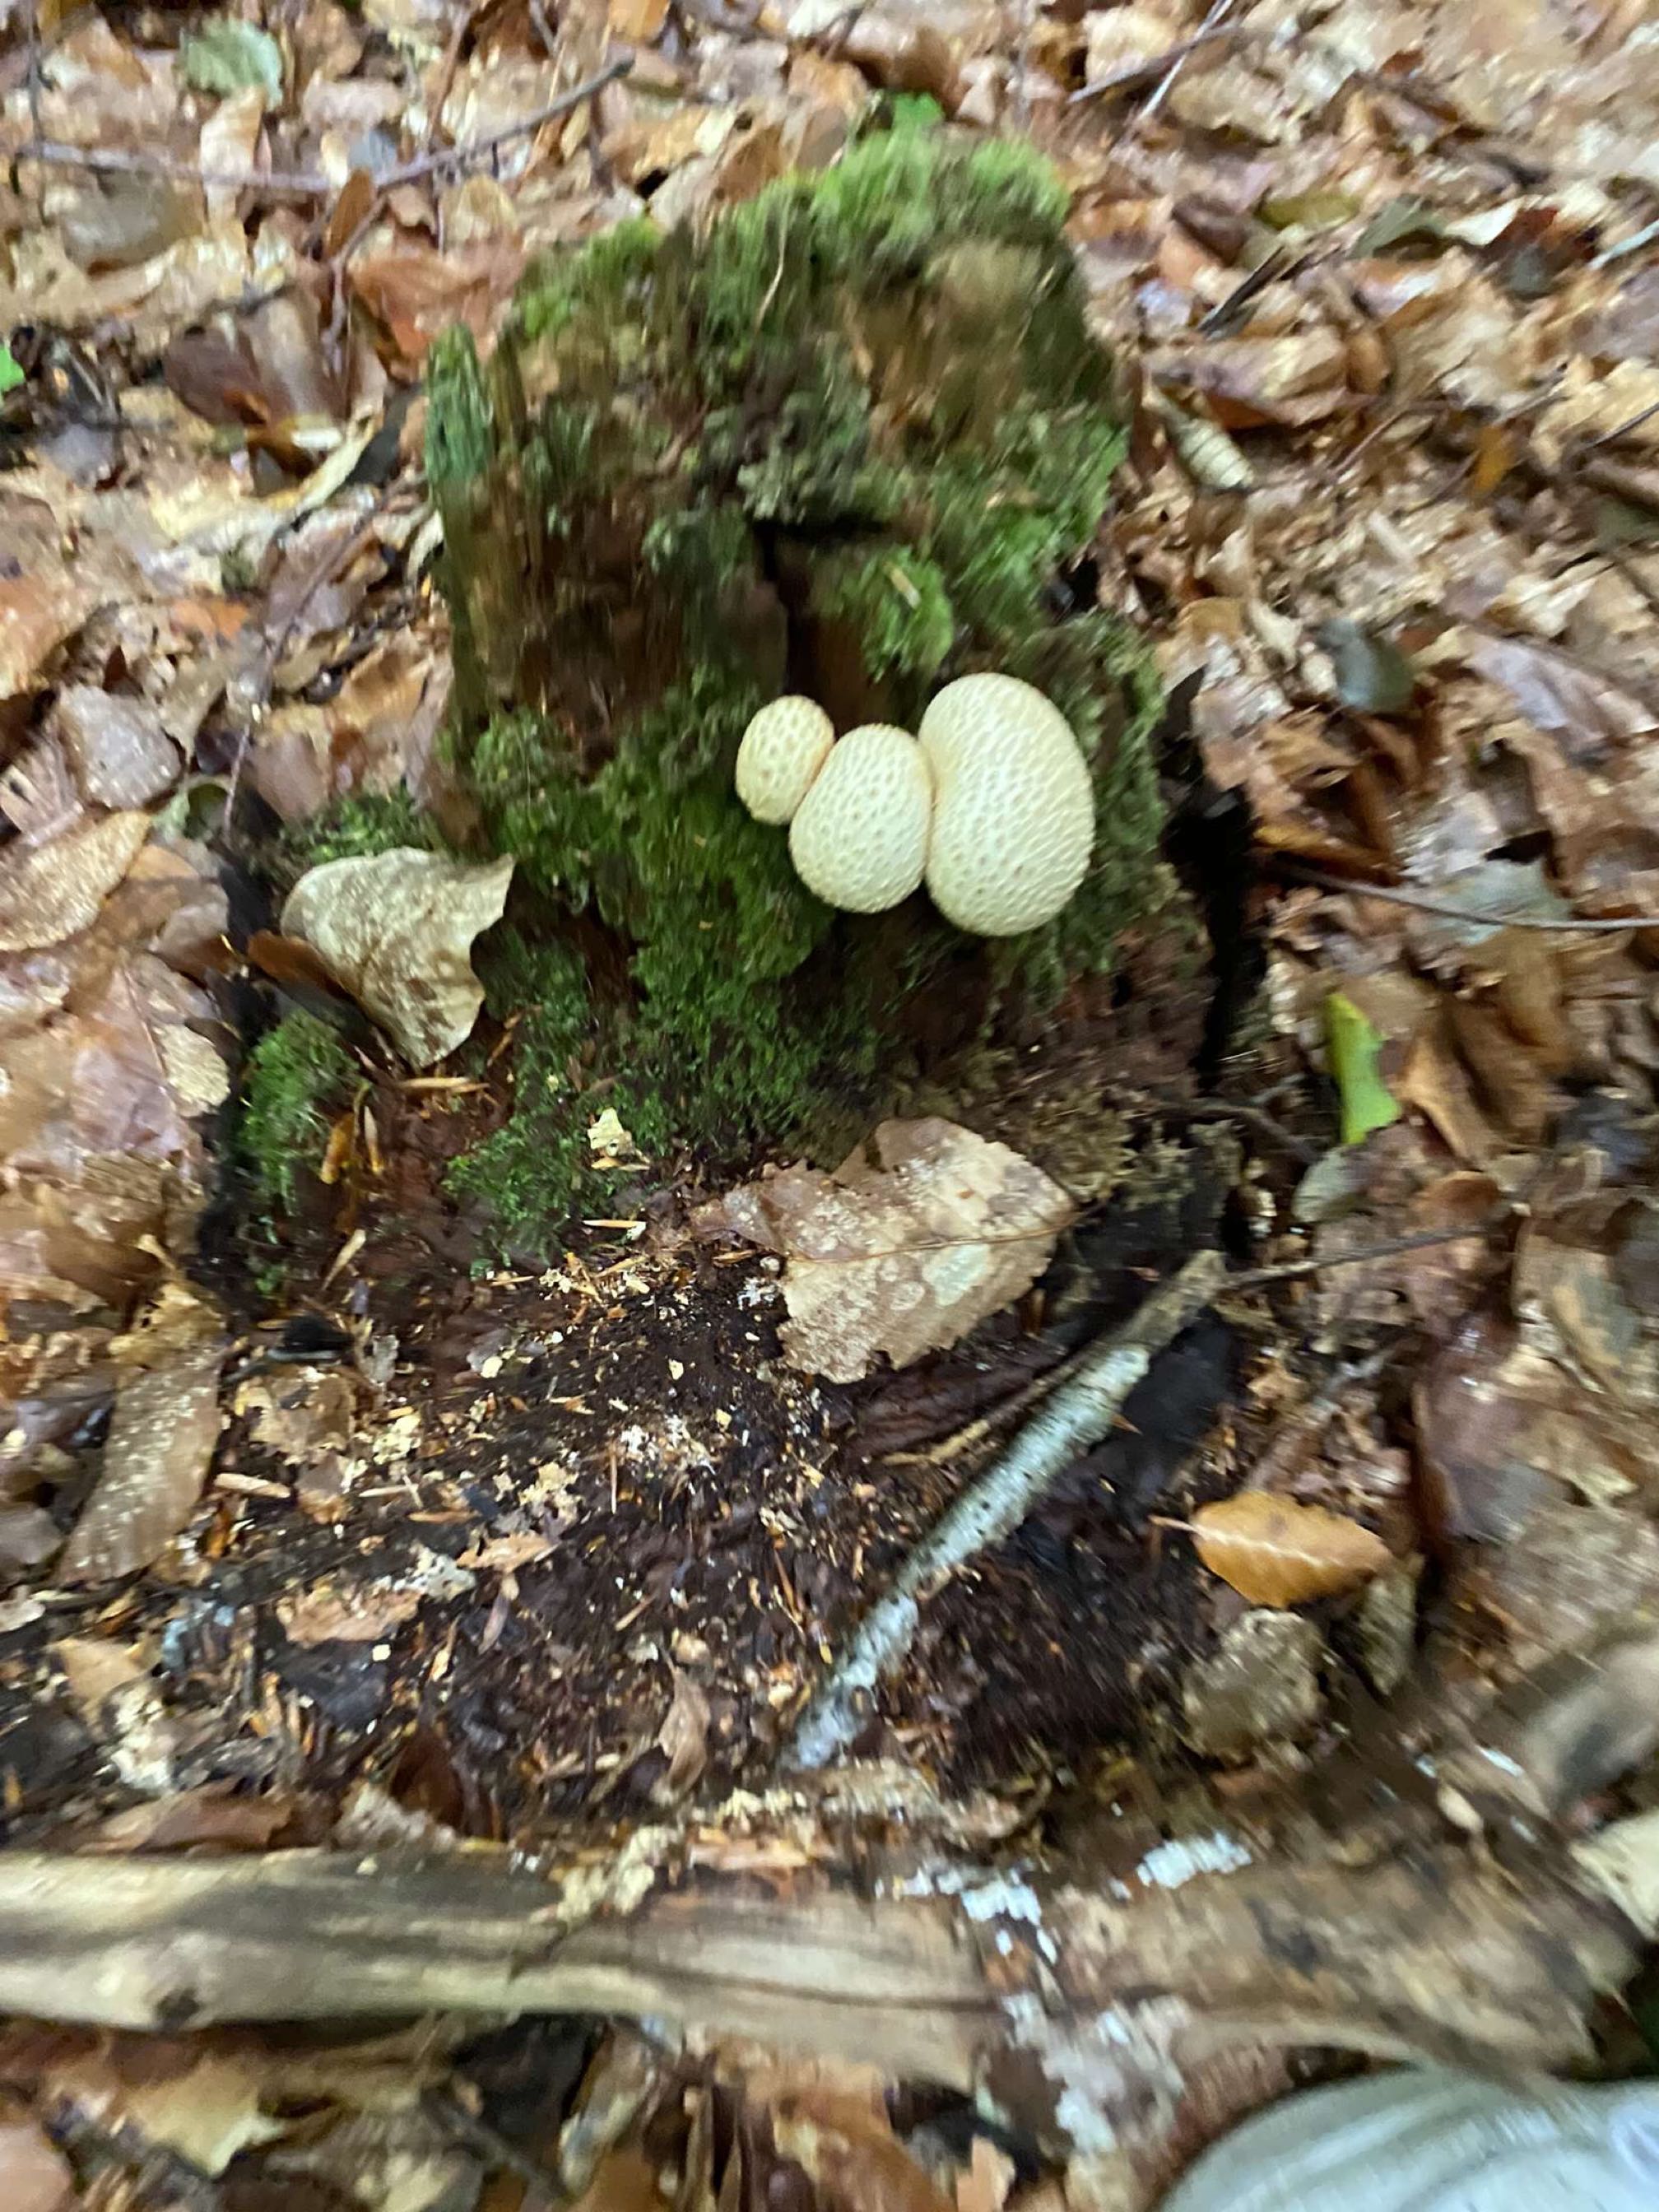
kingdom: Fungi
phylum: Basidiomycota
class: Agaricomycetes
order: Boletales
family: Sclerodermataceae
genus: Scleroderma
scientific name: Scleroderma citrinum
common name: almindelig bruskbold
